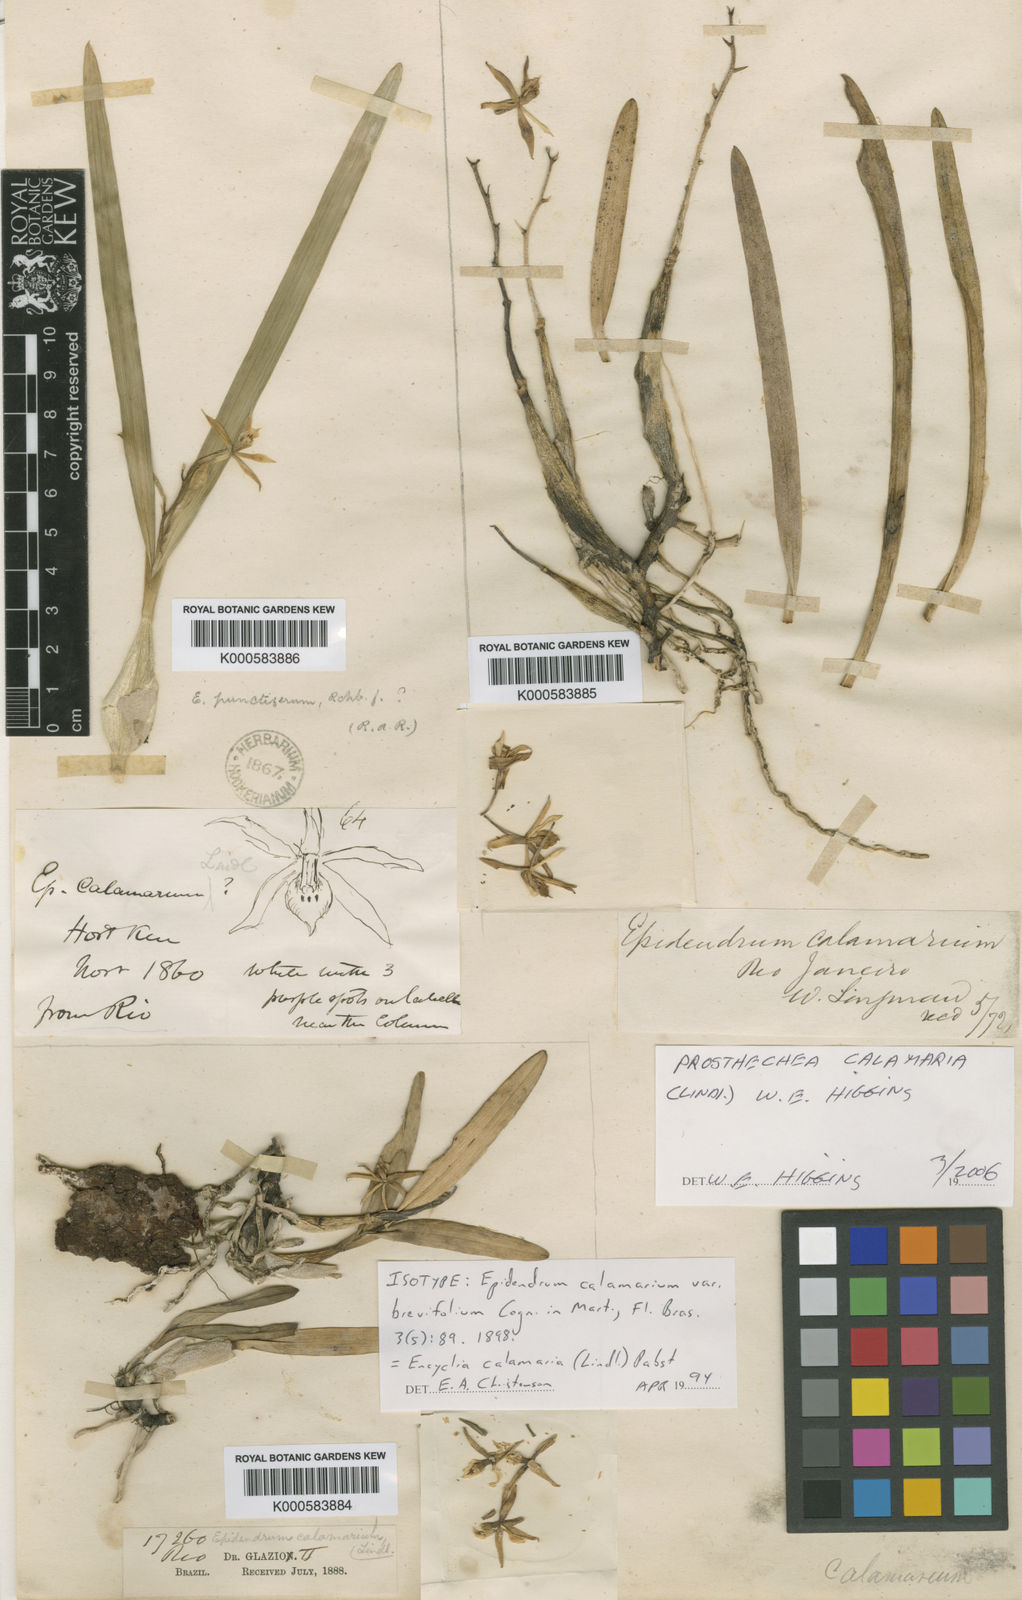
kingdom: Plantae
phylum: Tracheophyta
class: Liliopsida
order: Asparagales
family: Orchidaceae
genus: Prosthechea
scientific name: Prosthechea calamaria
